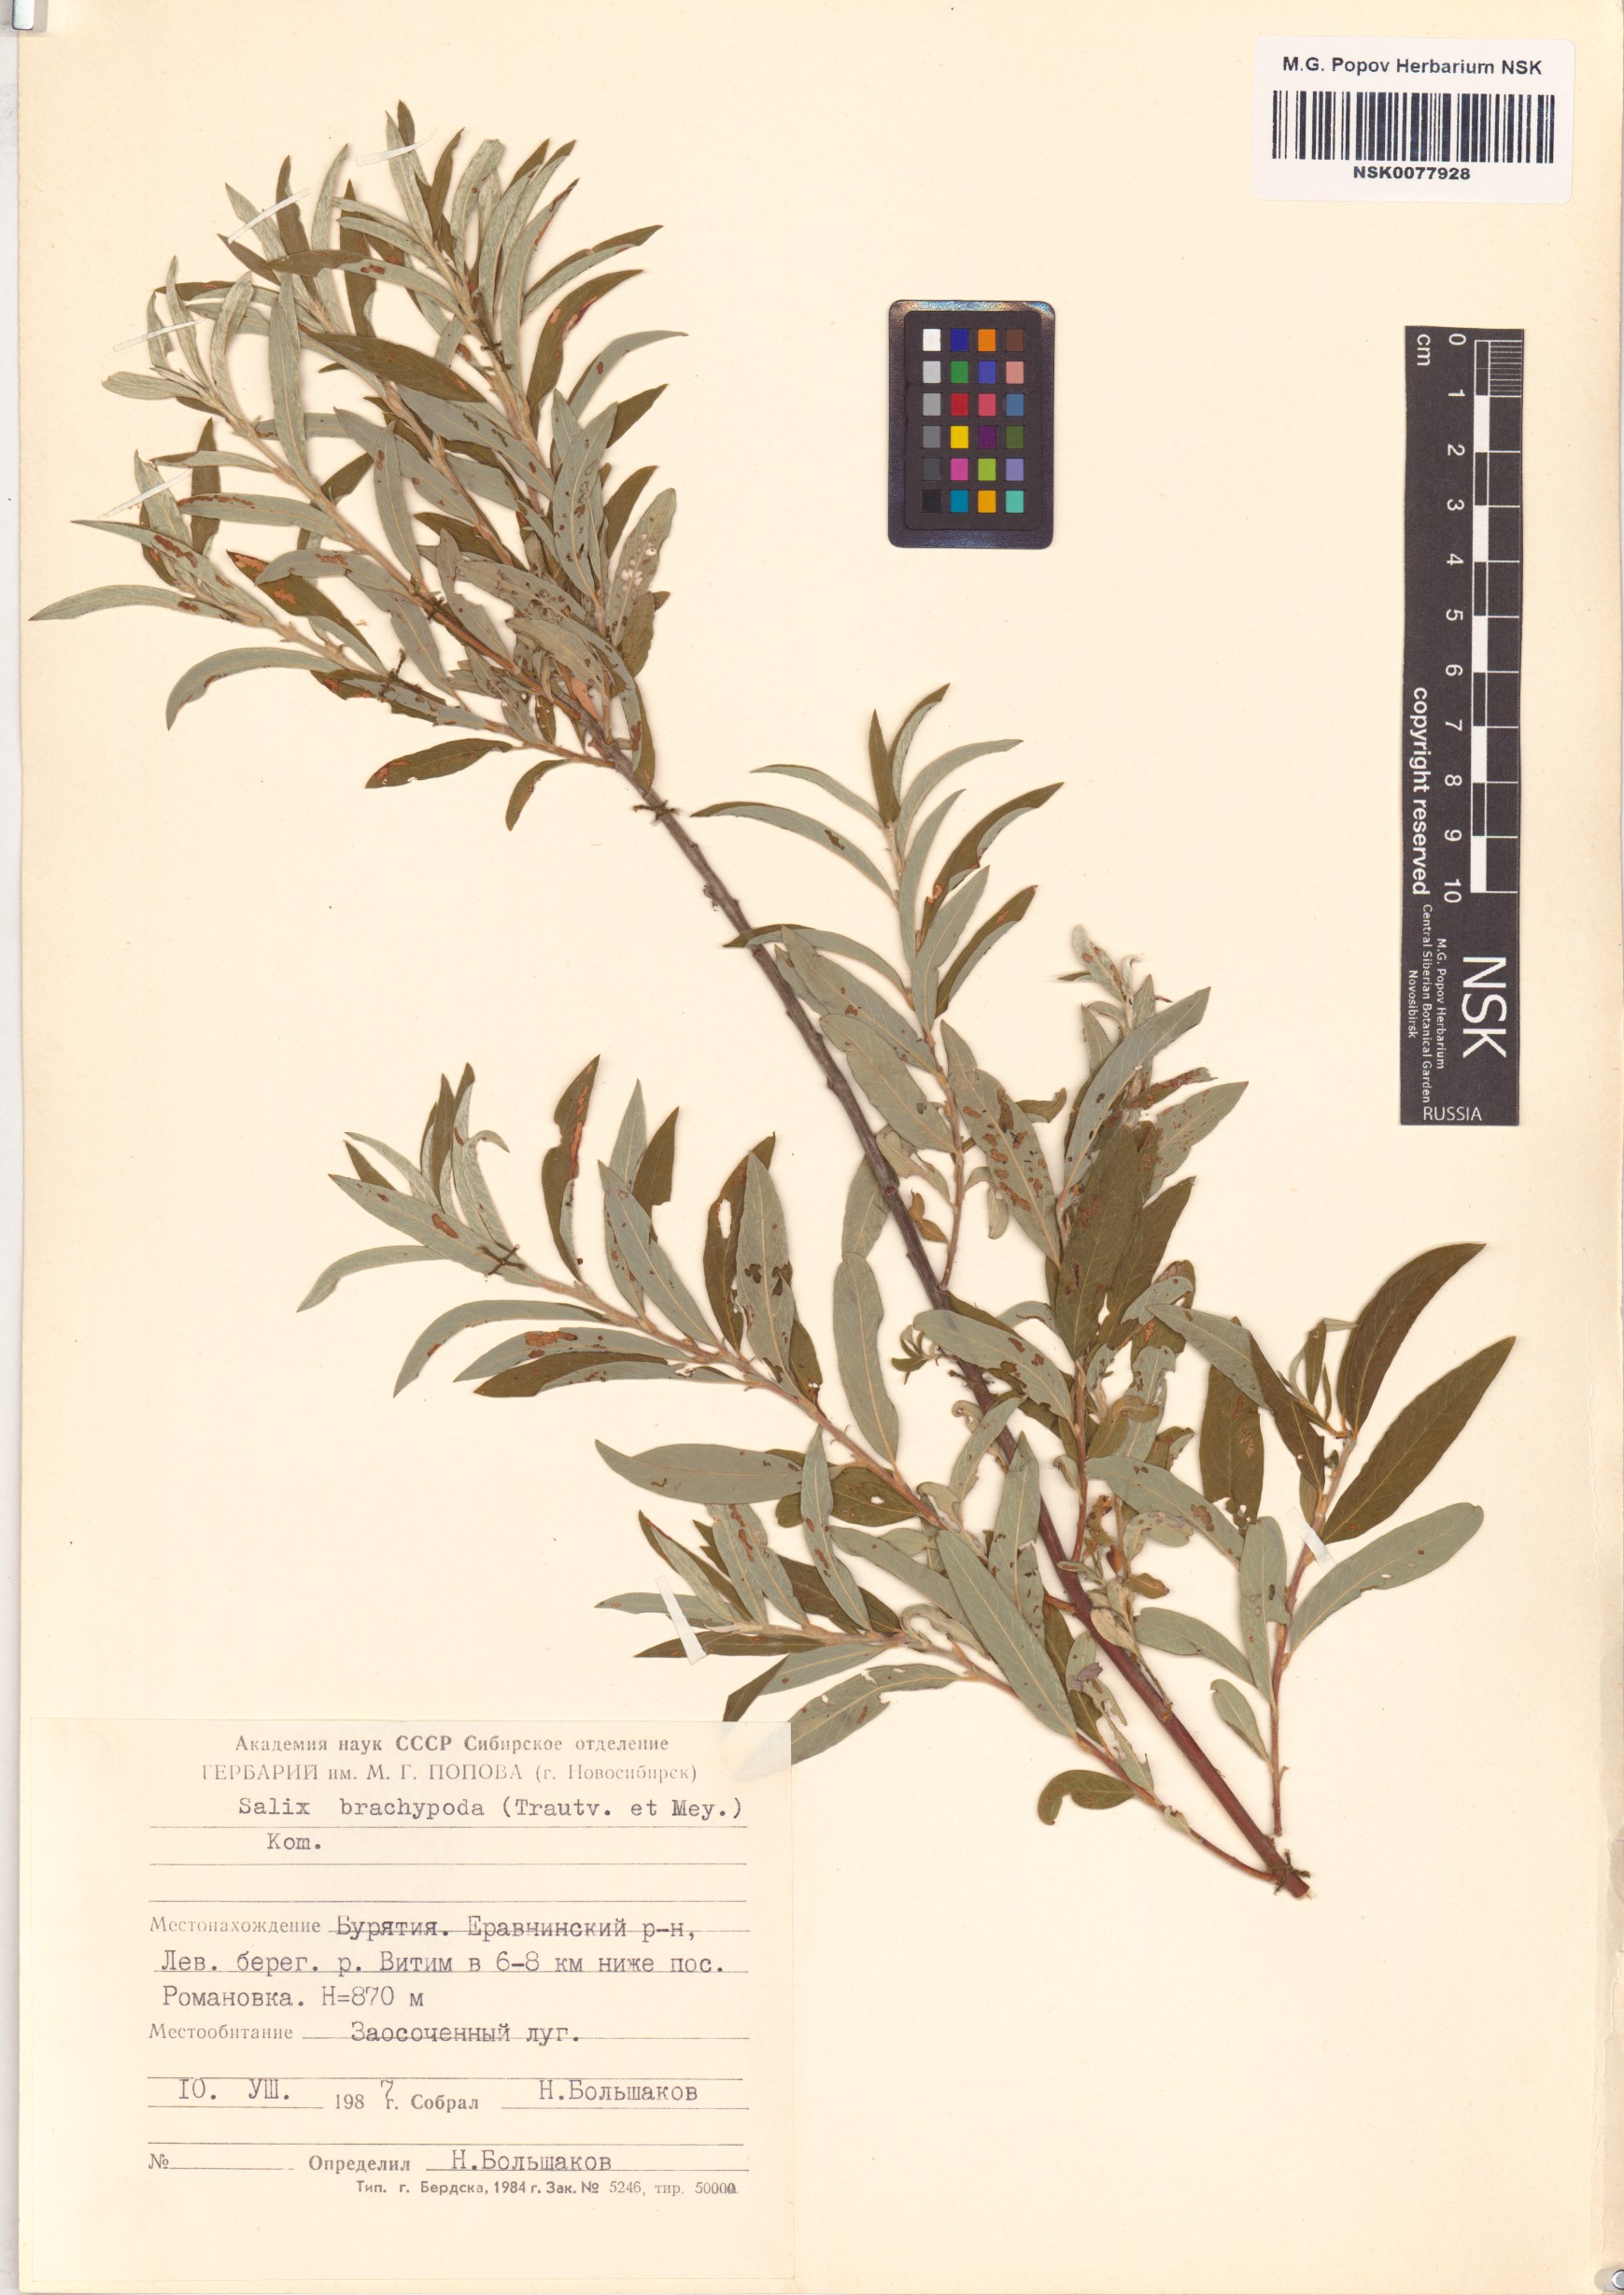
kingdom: Plantae
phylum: Tracheophyta
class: Magnoliopsida
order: Malpighiales
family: Salicaceae
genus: Salix
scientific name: Salix brachypoda
